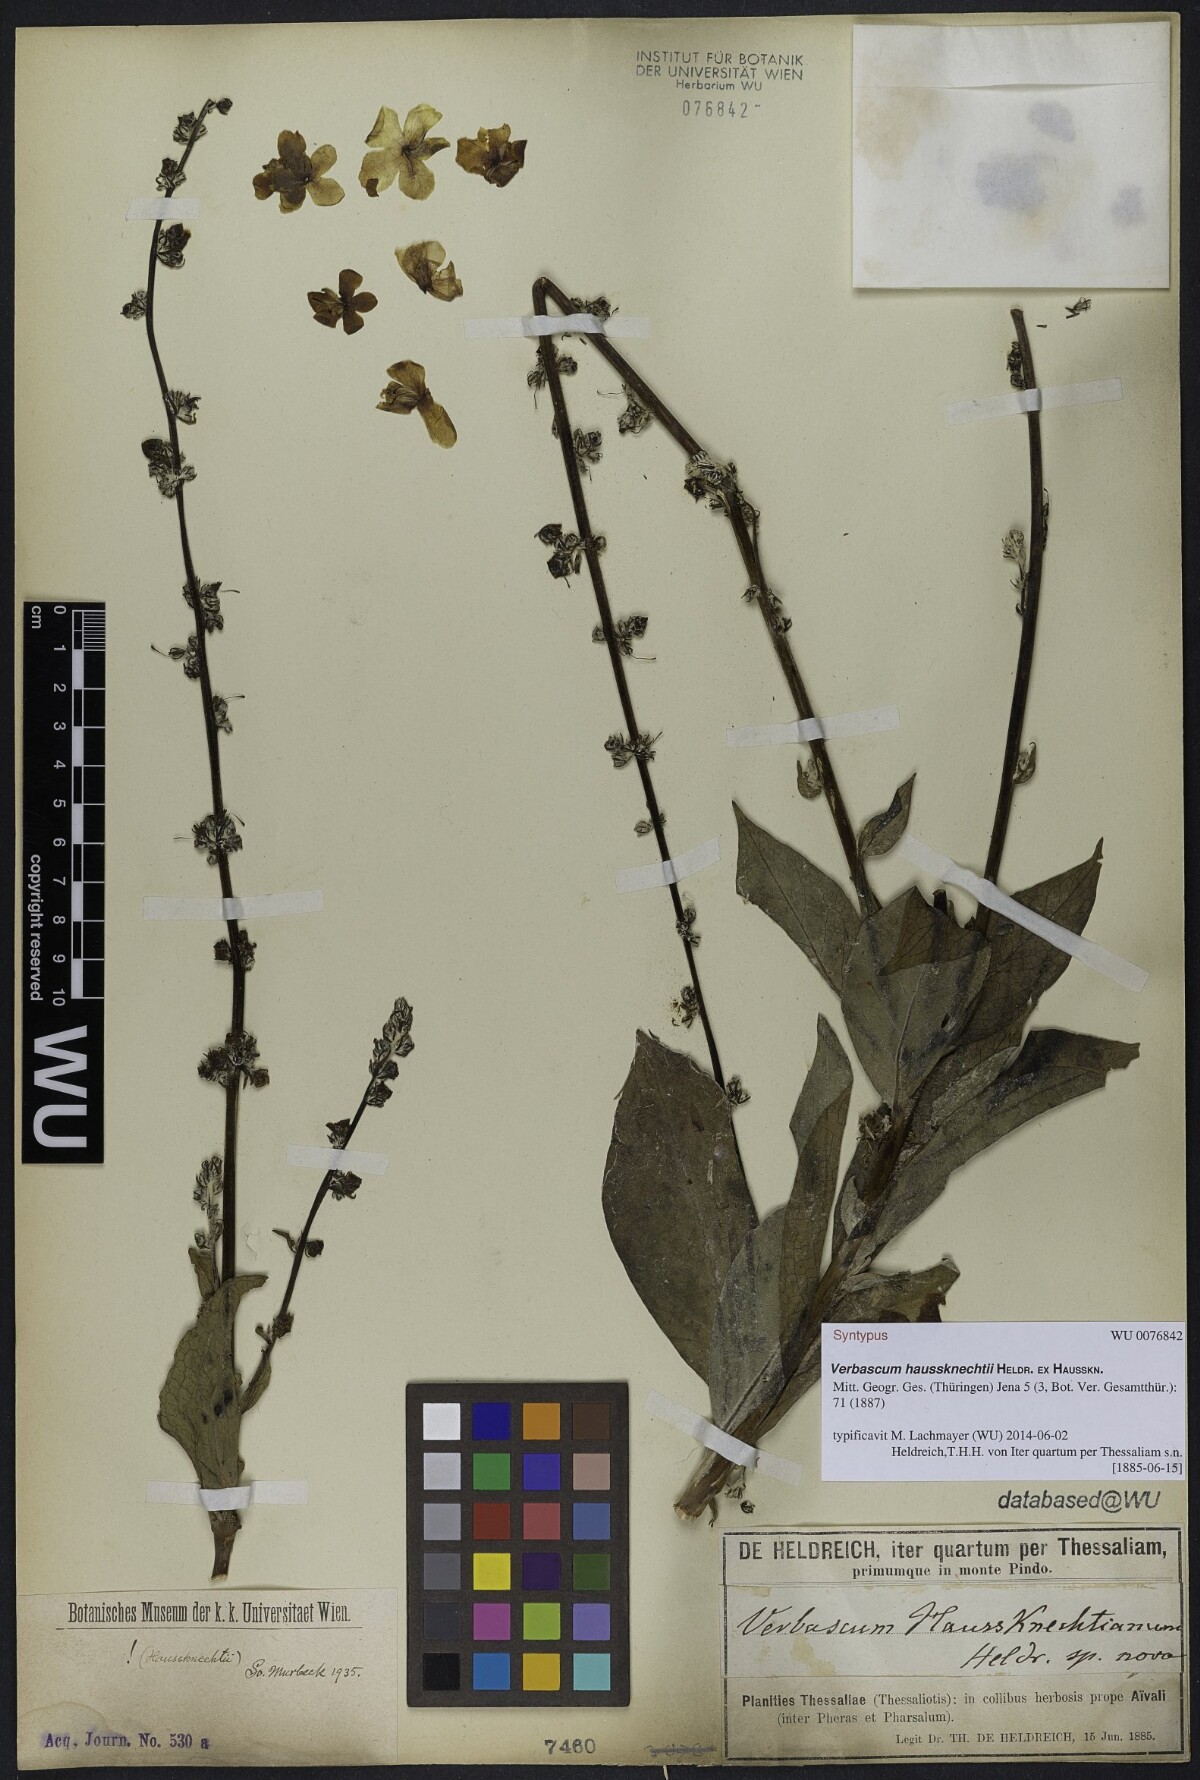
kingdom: Plantae
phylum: Tracheophyta
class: Magnoliopsida
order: Lamiales
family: Scrophulariaceae
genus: Verbascum
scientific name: Verbascum haussknechtii
